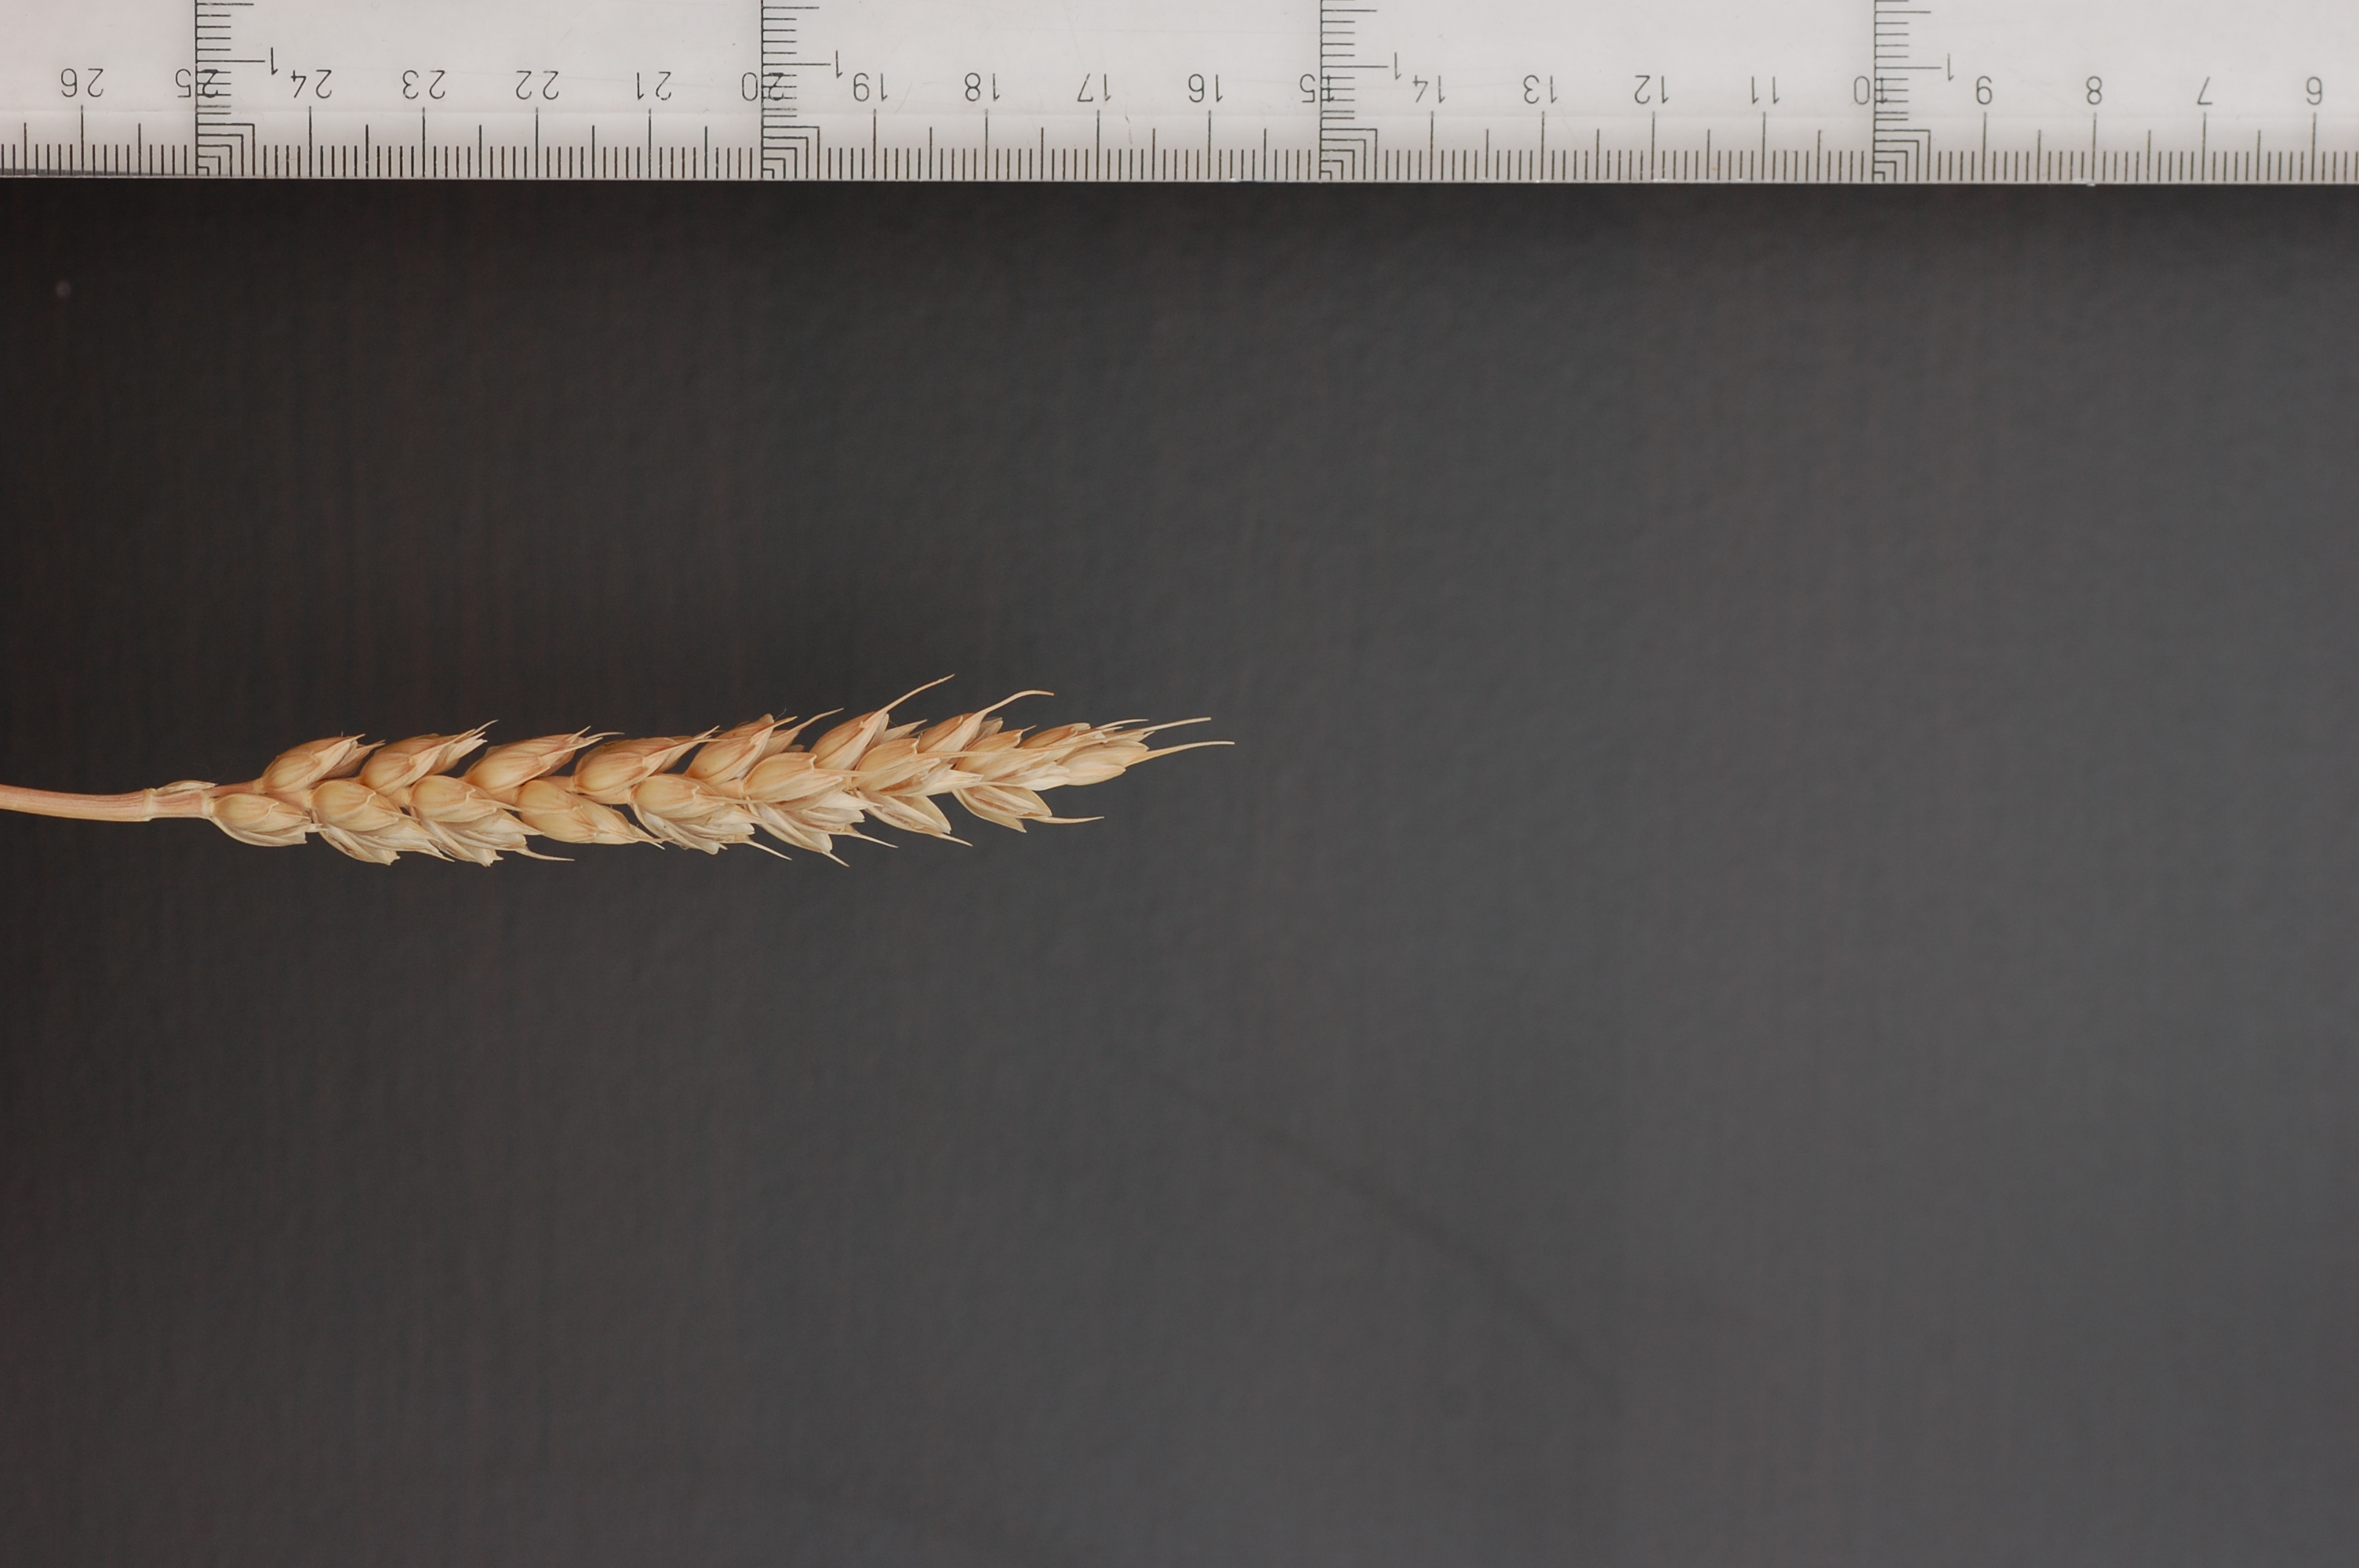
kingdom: Plantae
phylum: Tracheophyta
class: Liliopsida
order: Poales
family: Poaceae
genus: Triticum
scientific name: Triticum aestivum
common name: Common wheat
